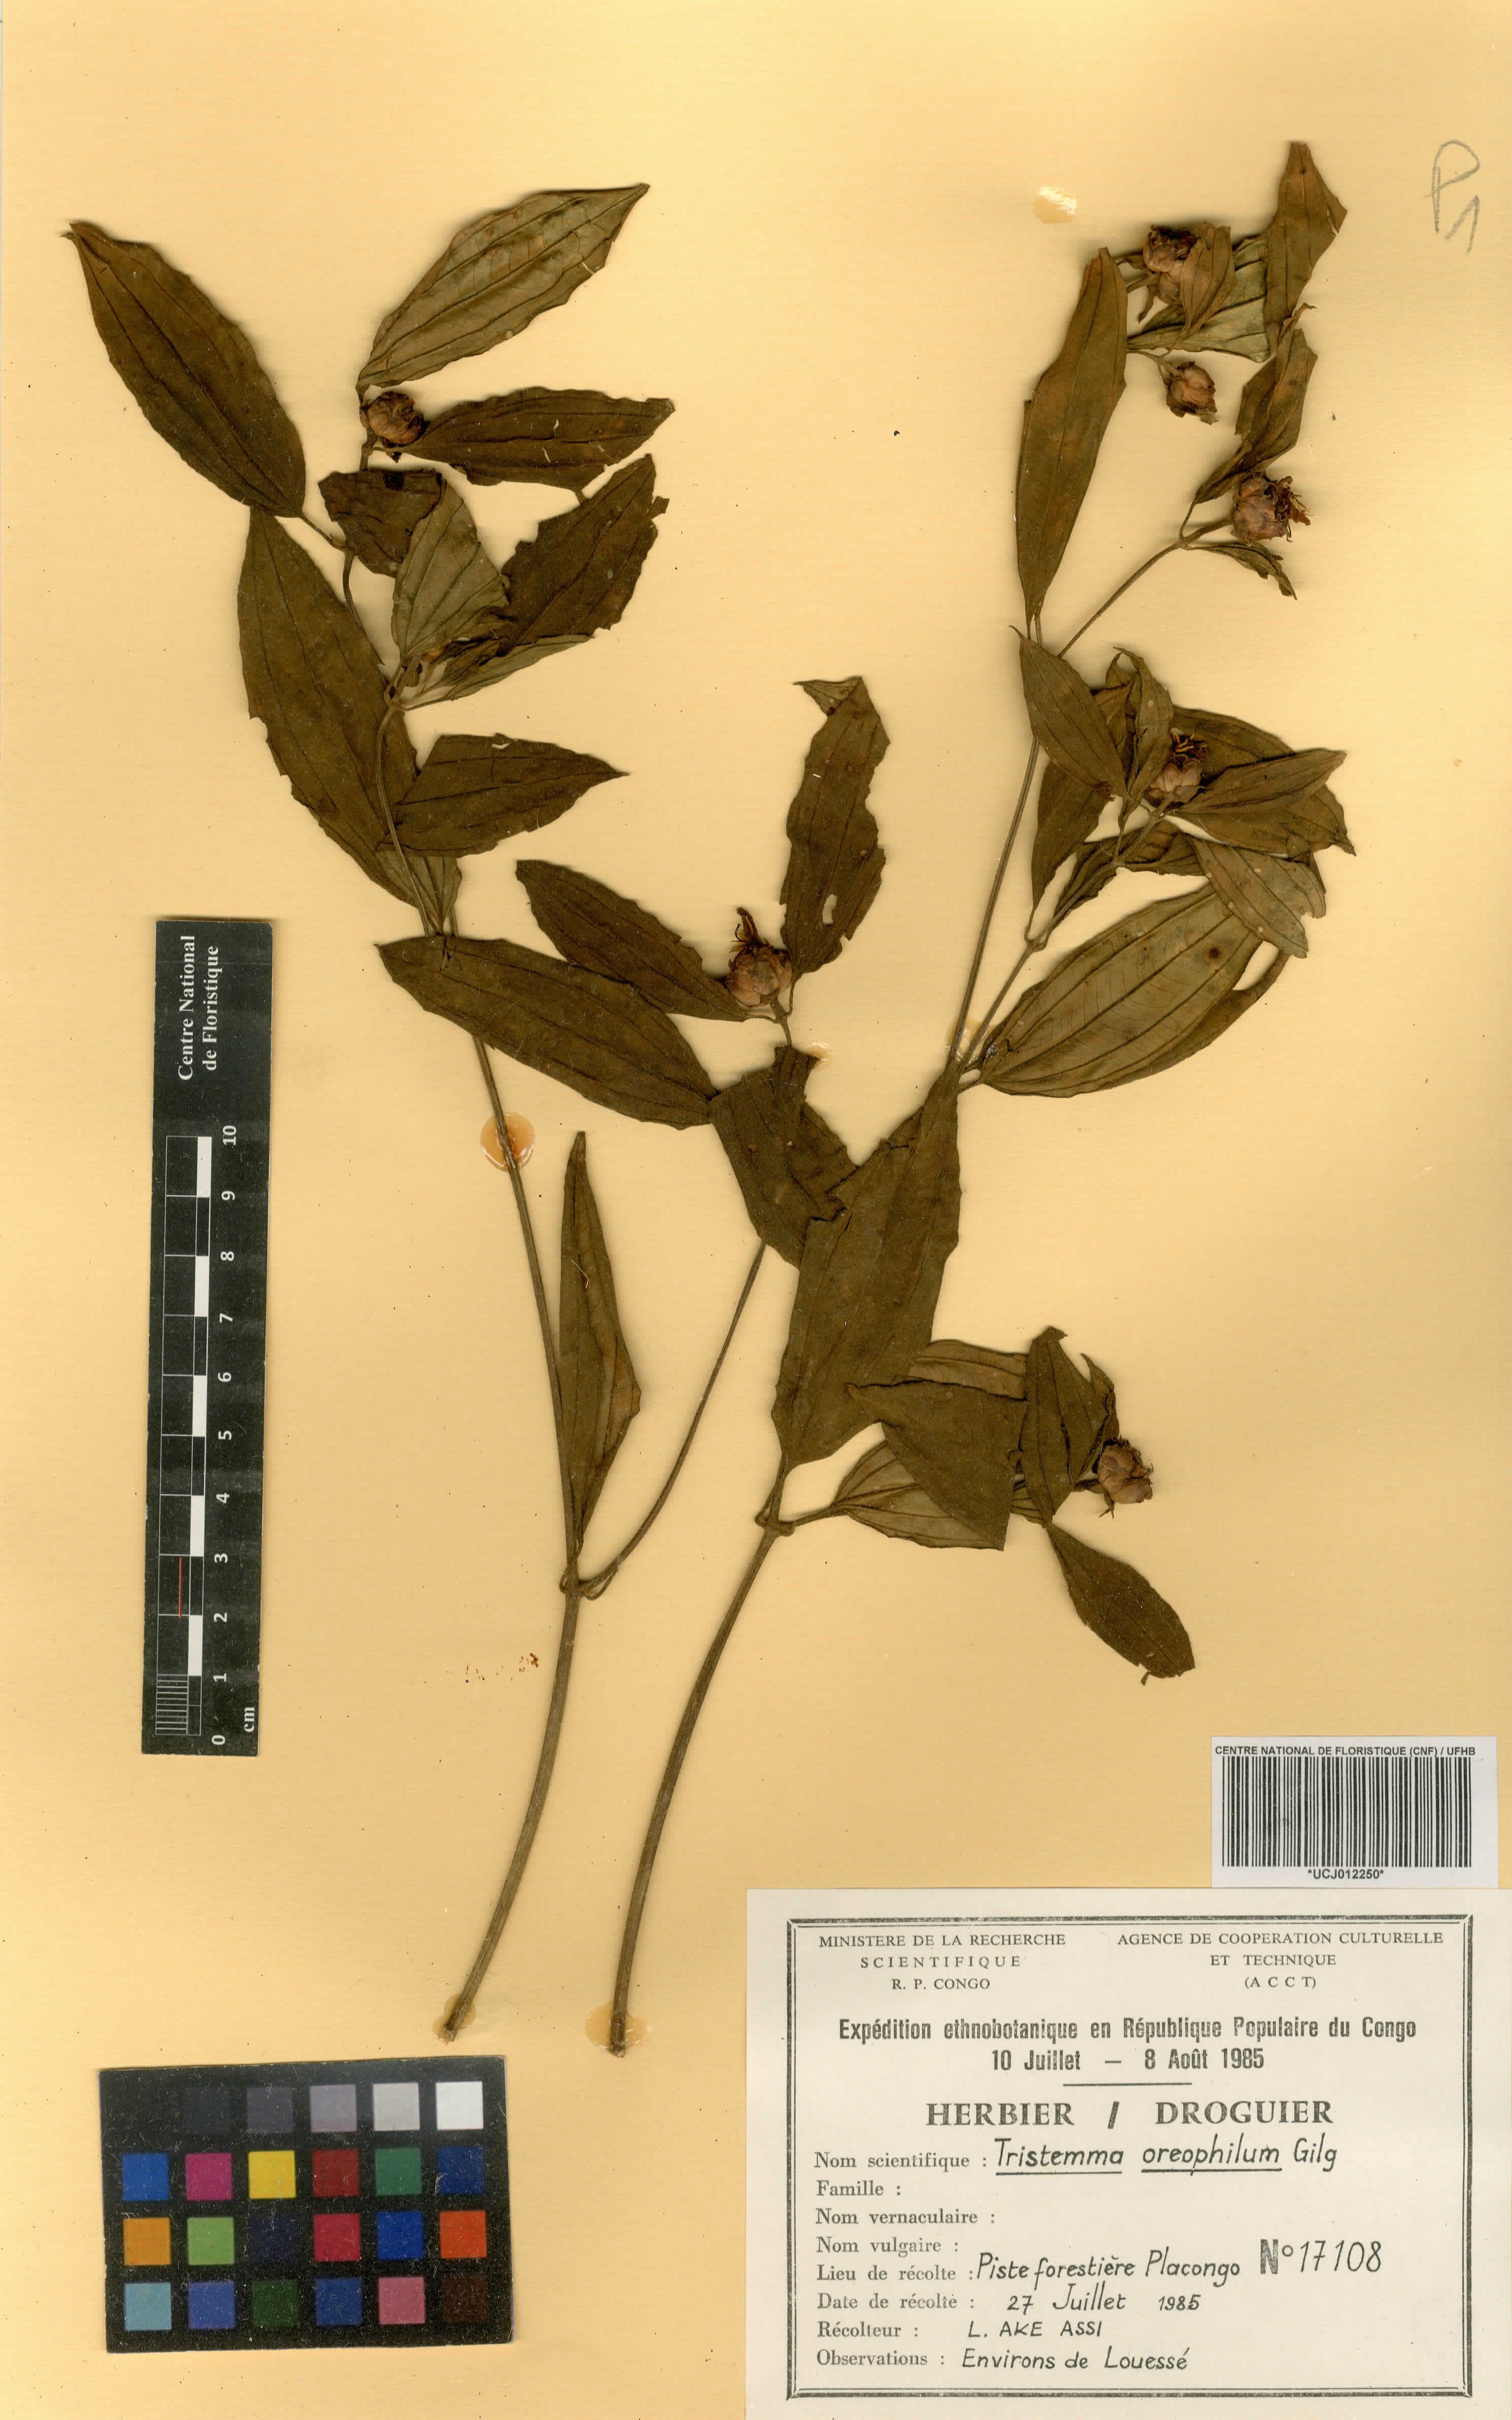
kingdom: Plantae
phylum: Tracheophyta
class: Magnoliopsida
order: Myrtales
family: Melastomataceae
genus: Tristemma
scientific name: Tristemma oreophilum
